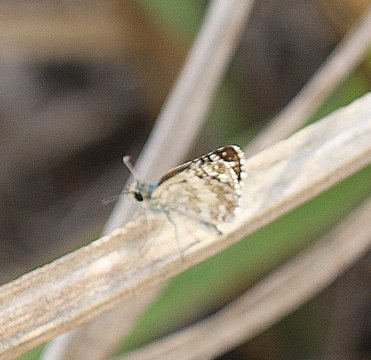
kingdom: Animalia
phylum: Arthropoda
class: Insecta
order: Lepidoptera
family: Hesperiidae
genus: Pyrgus
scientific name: Pyrgus communis
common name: Common Checkered-Skipper
